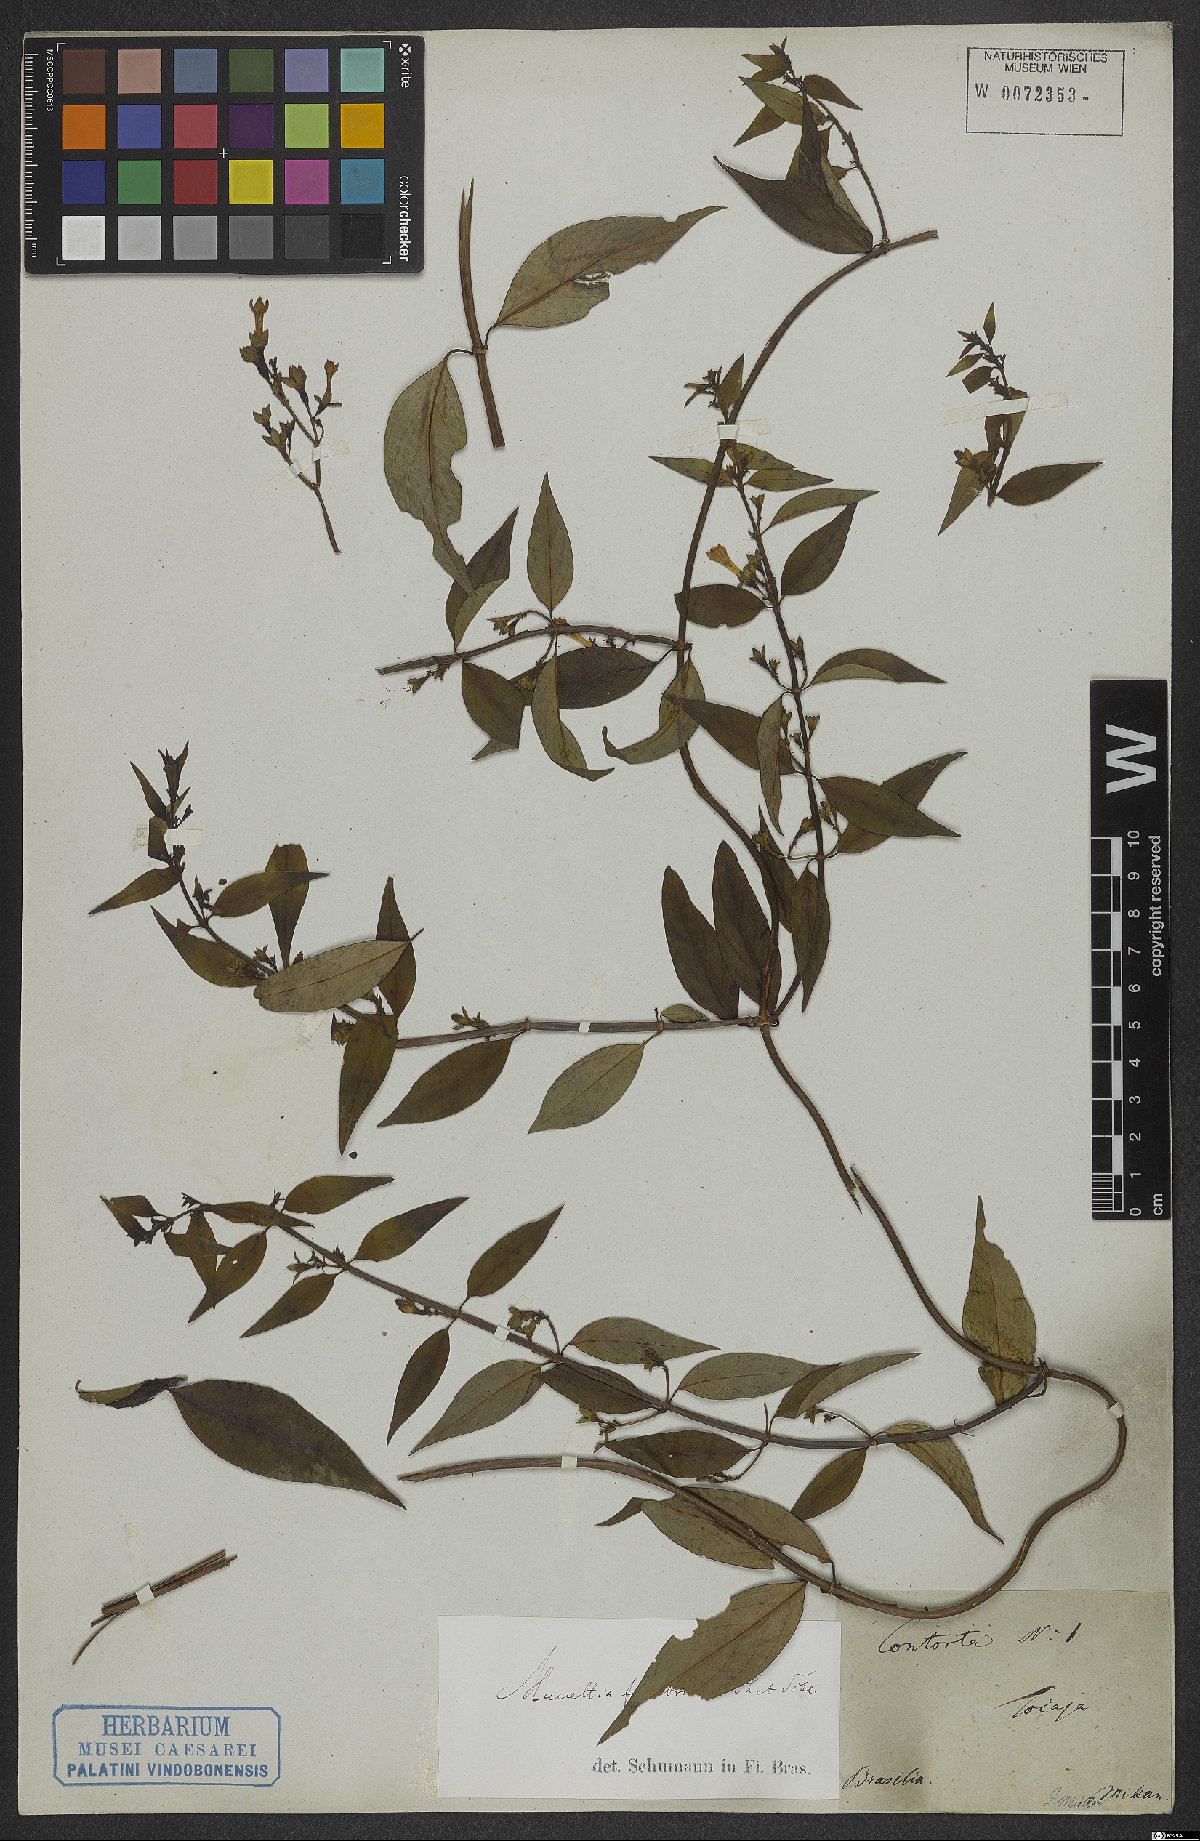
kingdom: Plantae
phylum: Tracheophyta
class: Magnoliopsida
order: Gentianales
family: Rubiaceae
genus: Manettia
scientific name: Manettia fimbriata
